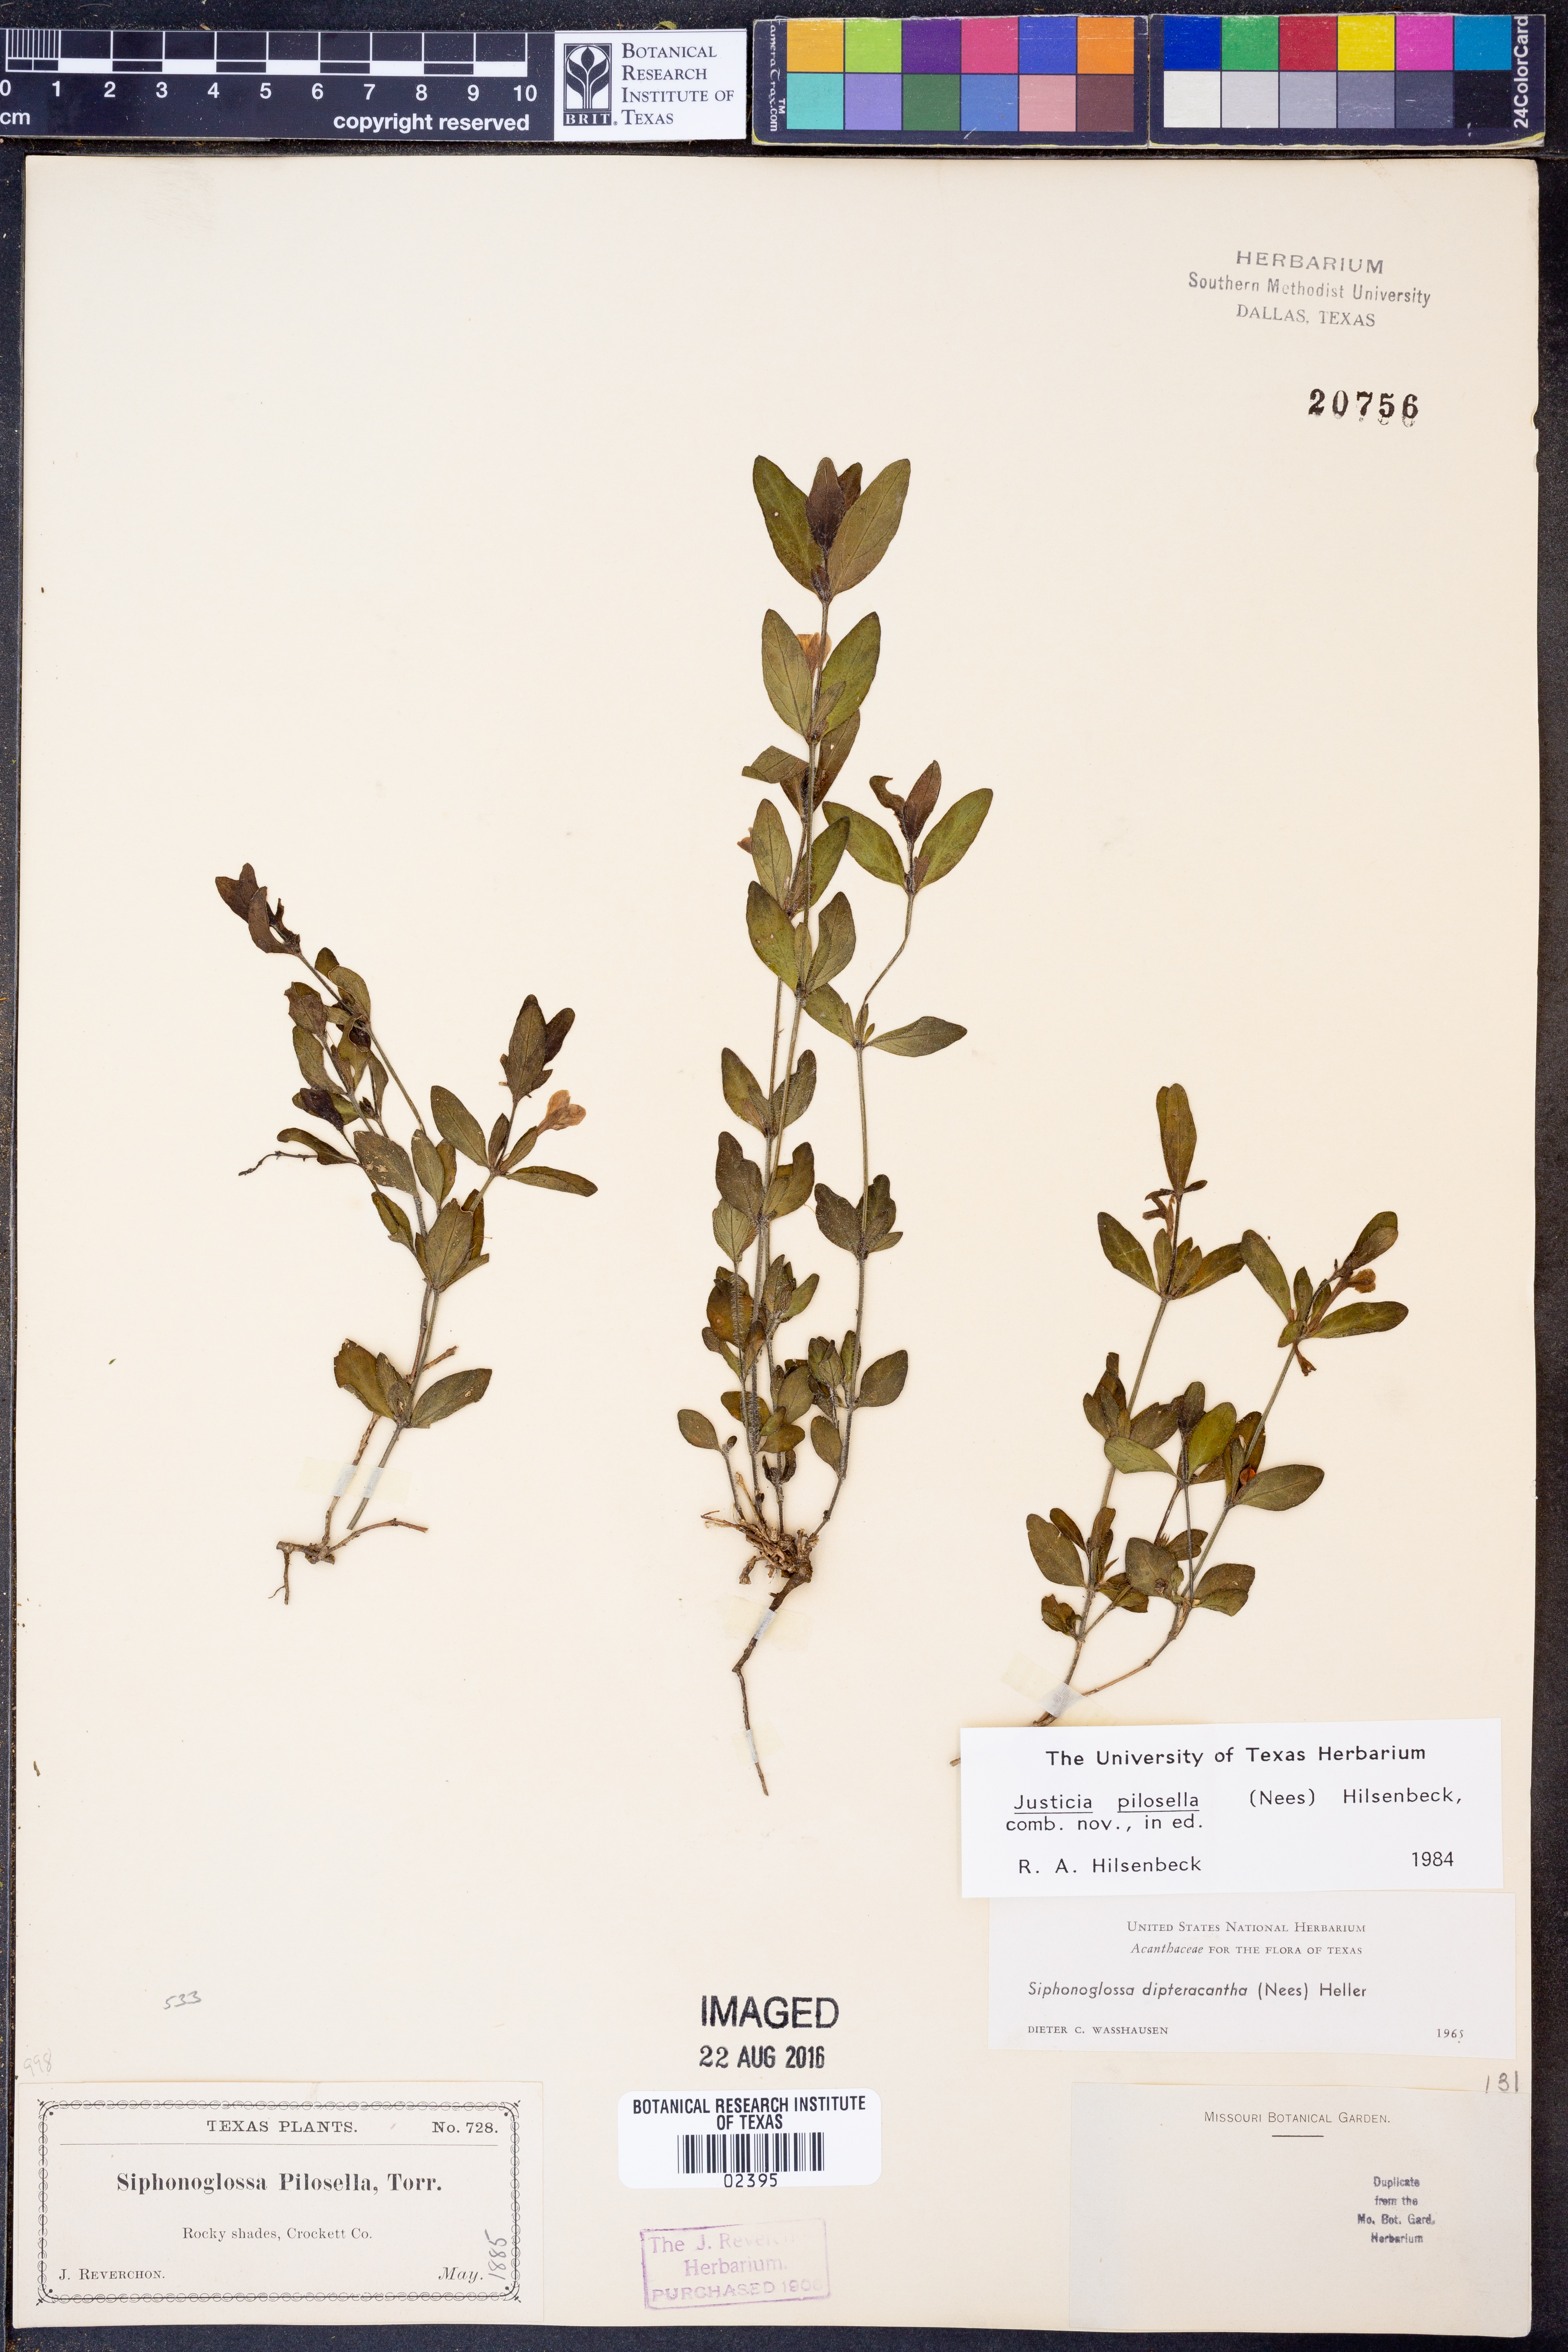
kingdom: Plantae
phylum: Tracheophyta
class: Magnoliopsida
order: Lamiales
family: Acanthaceae
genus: Justicia
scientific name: Justicia pilosella
